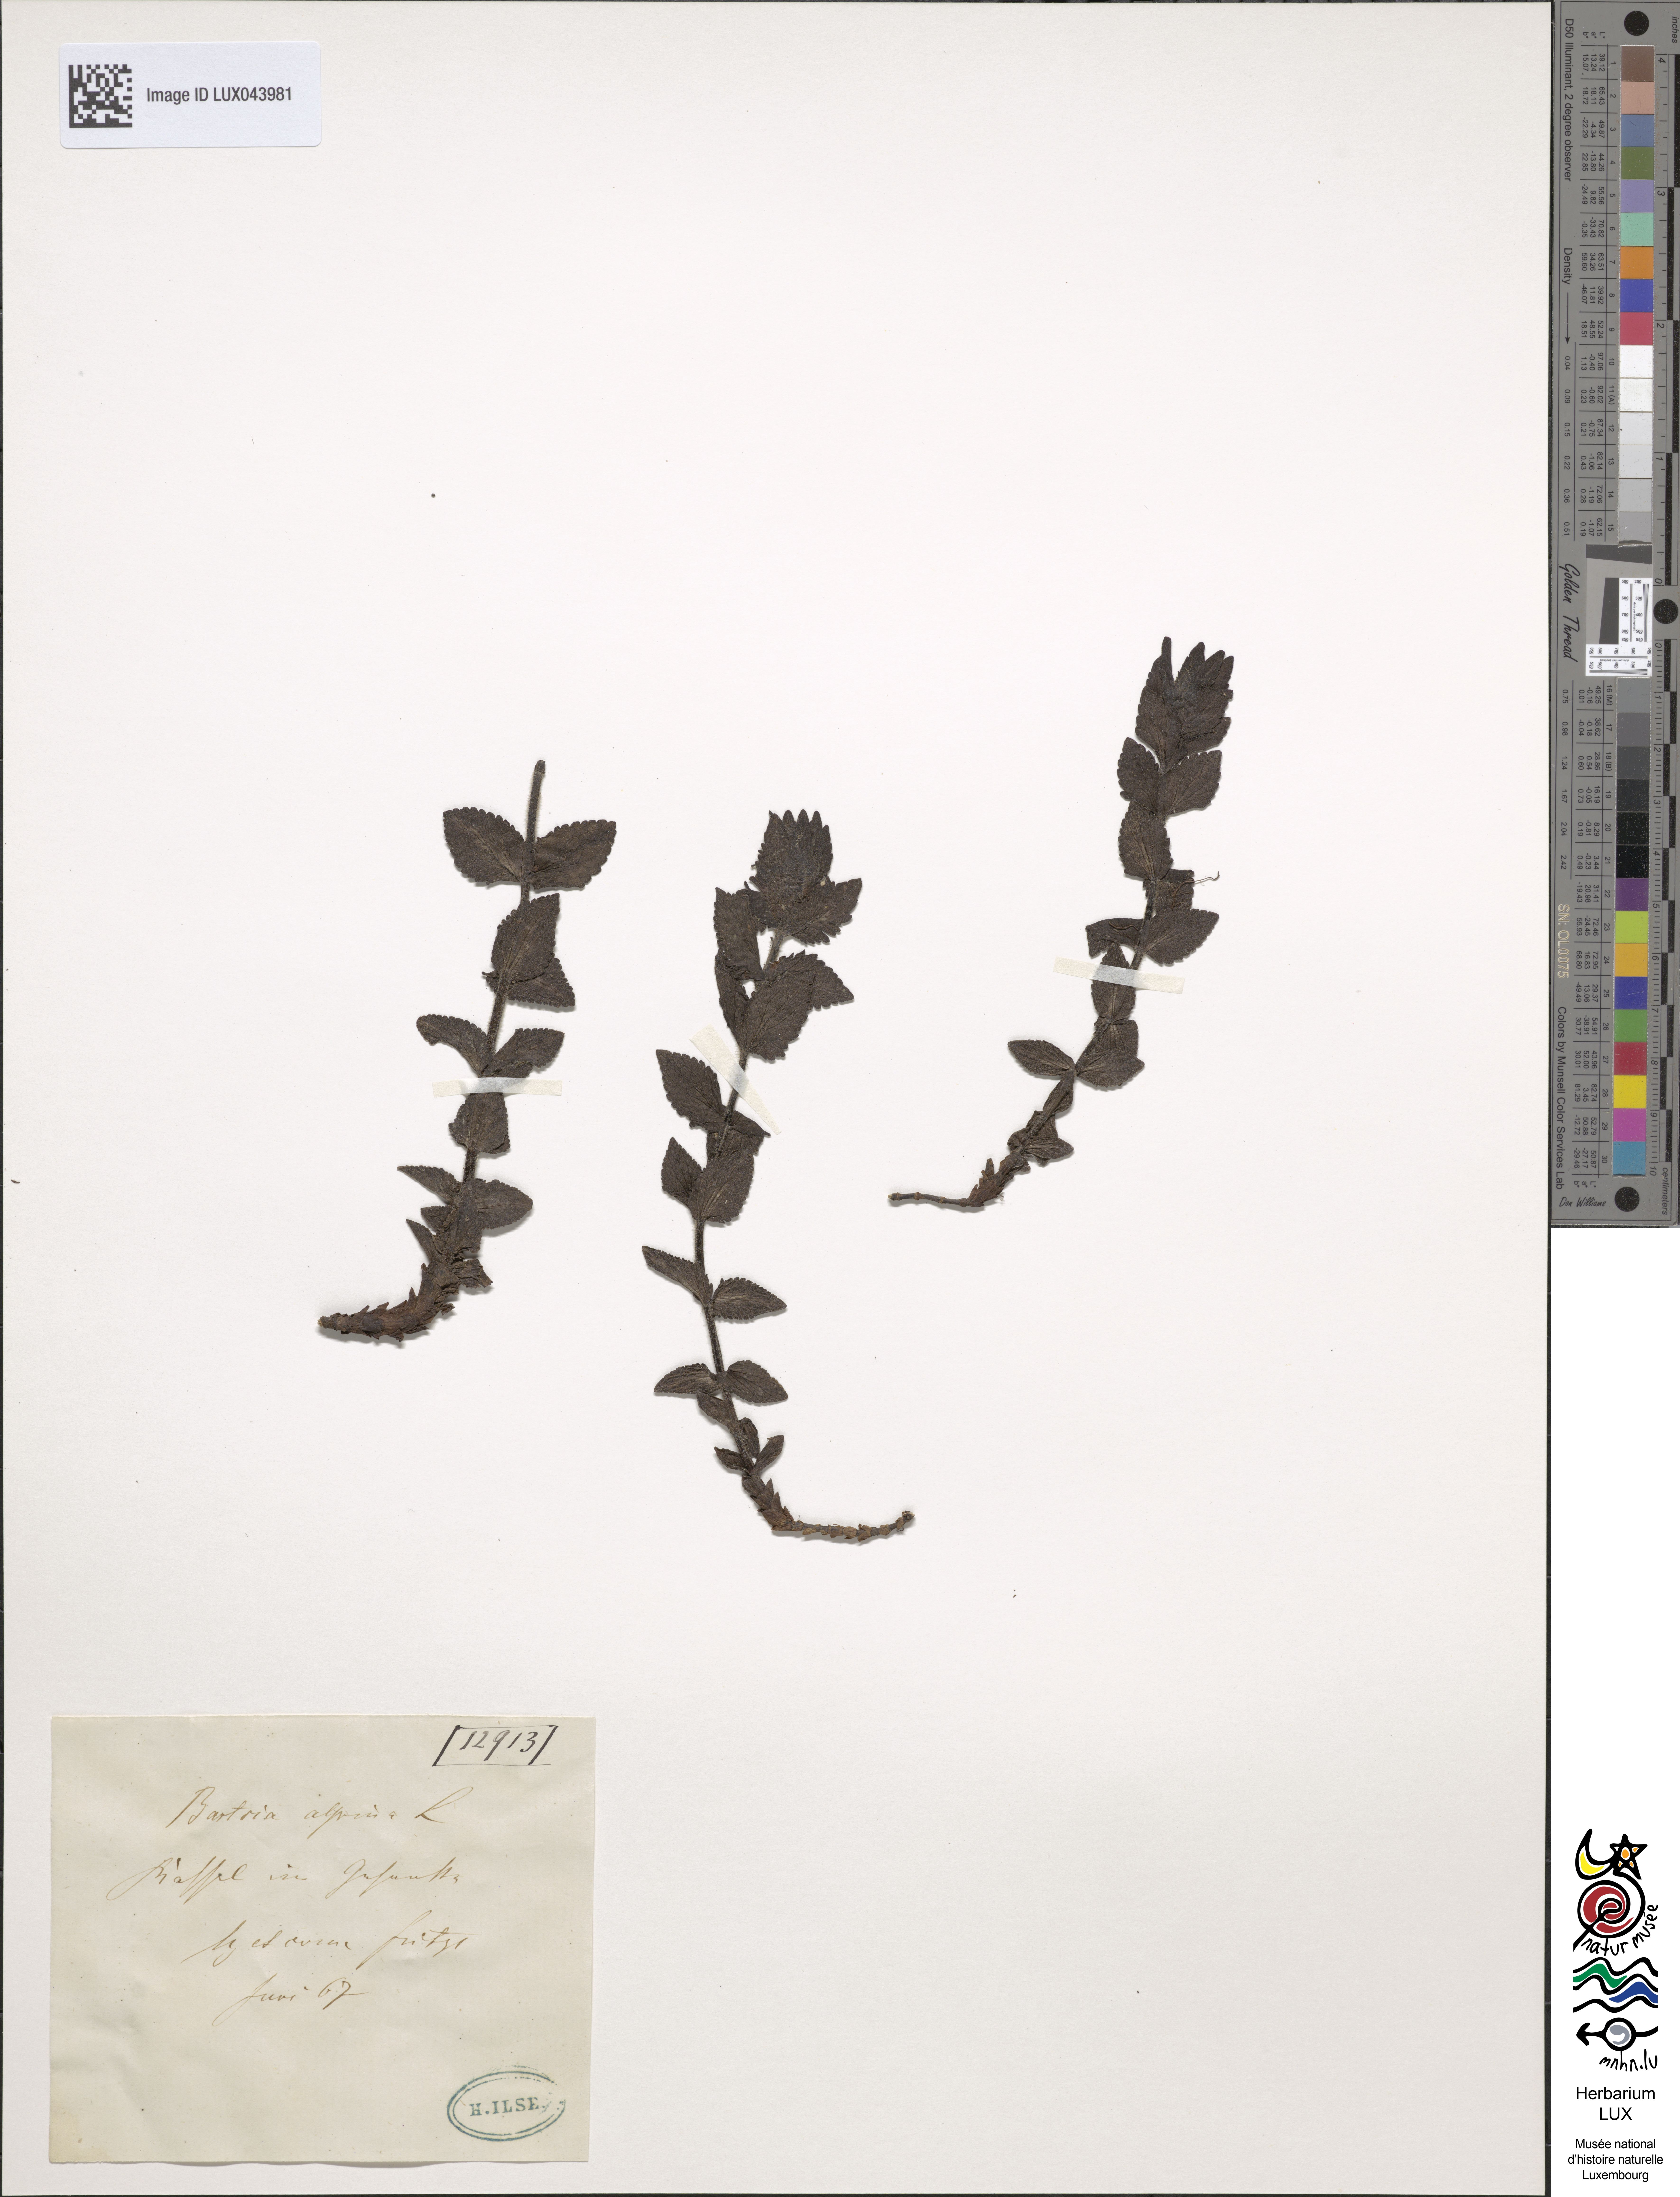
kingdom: Plantae
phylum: Tracheophyta
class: Magnoliopsida
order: Lamiales
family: Orobanchaceae
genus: Bartsia
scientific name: Bartsia alpina
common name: Alpine bartsia
